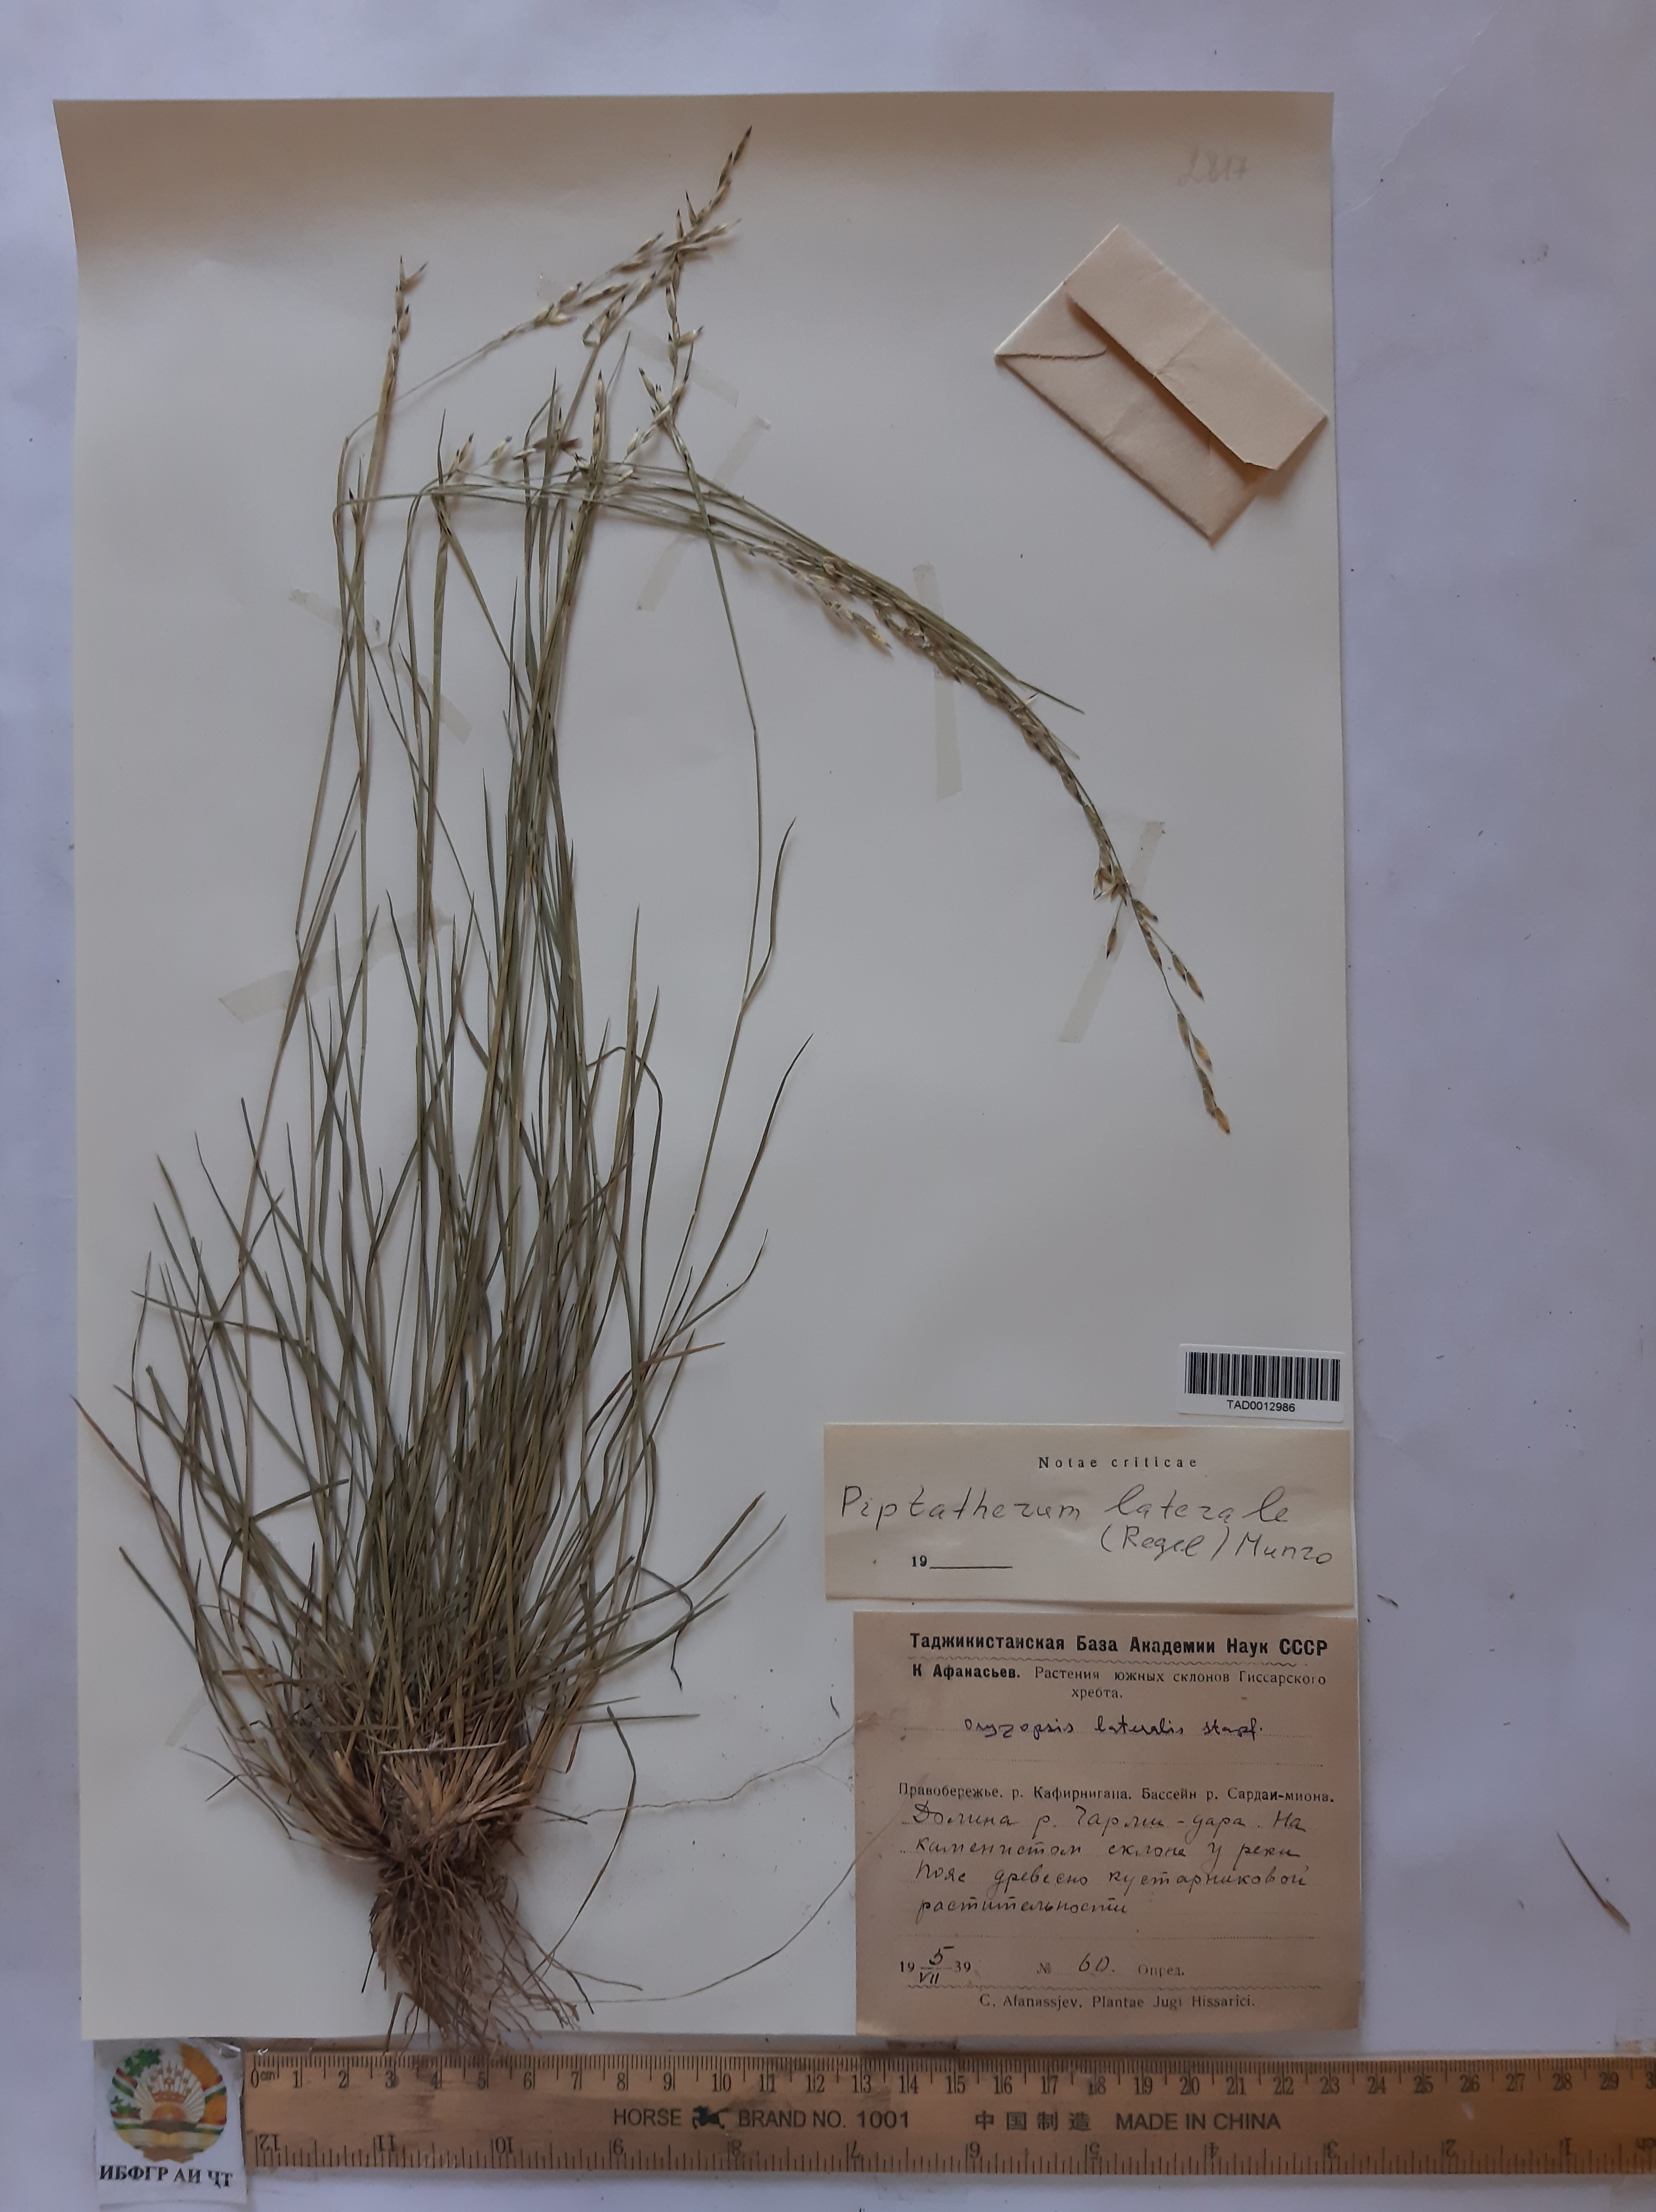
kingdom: Plantae
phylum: Tracheophyta
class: Liliopsida
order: Poales
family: Poaceae
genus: Piptatherum
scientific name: Piptatherum laterale
